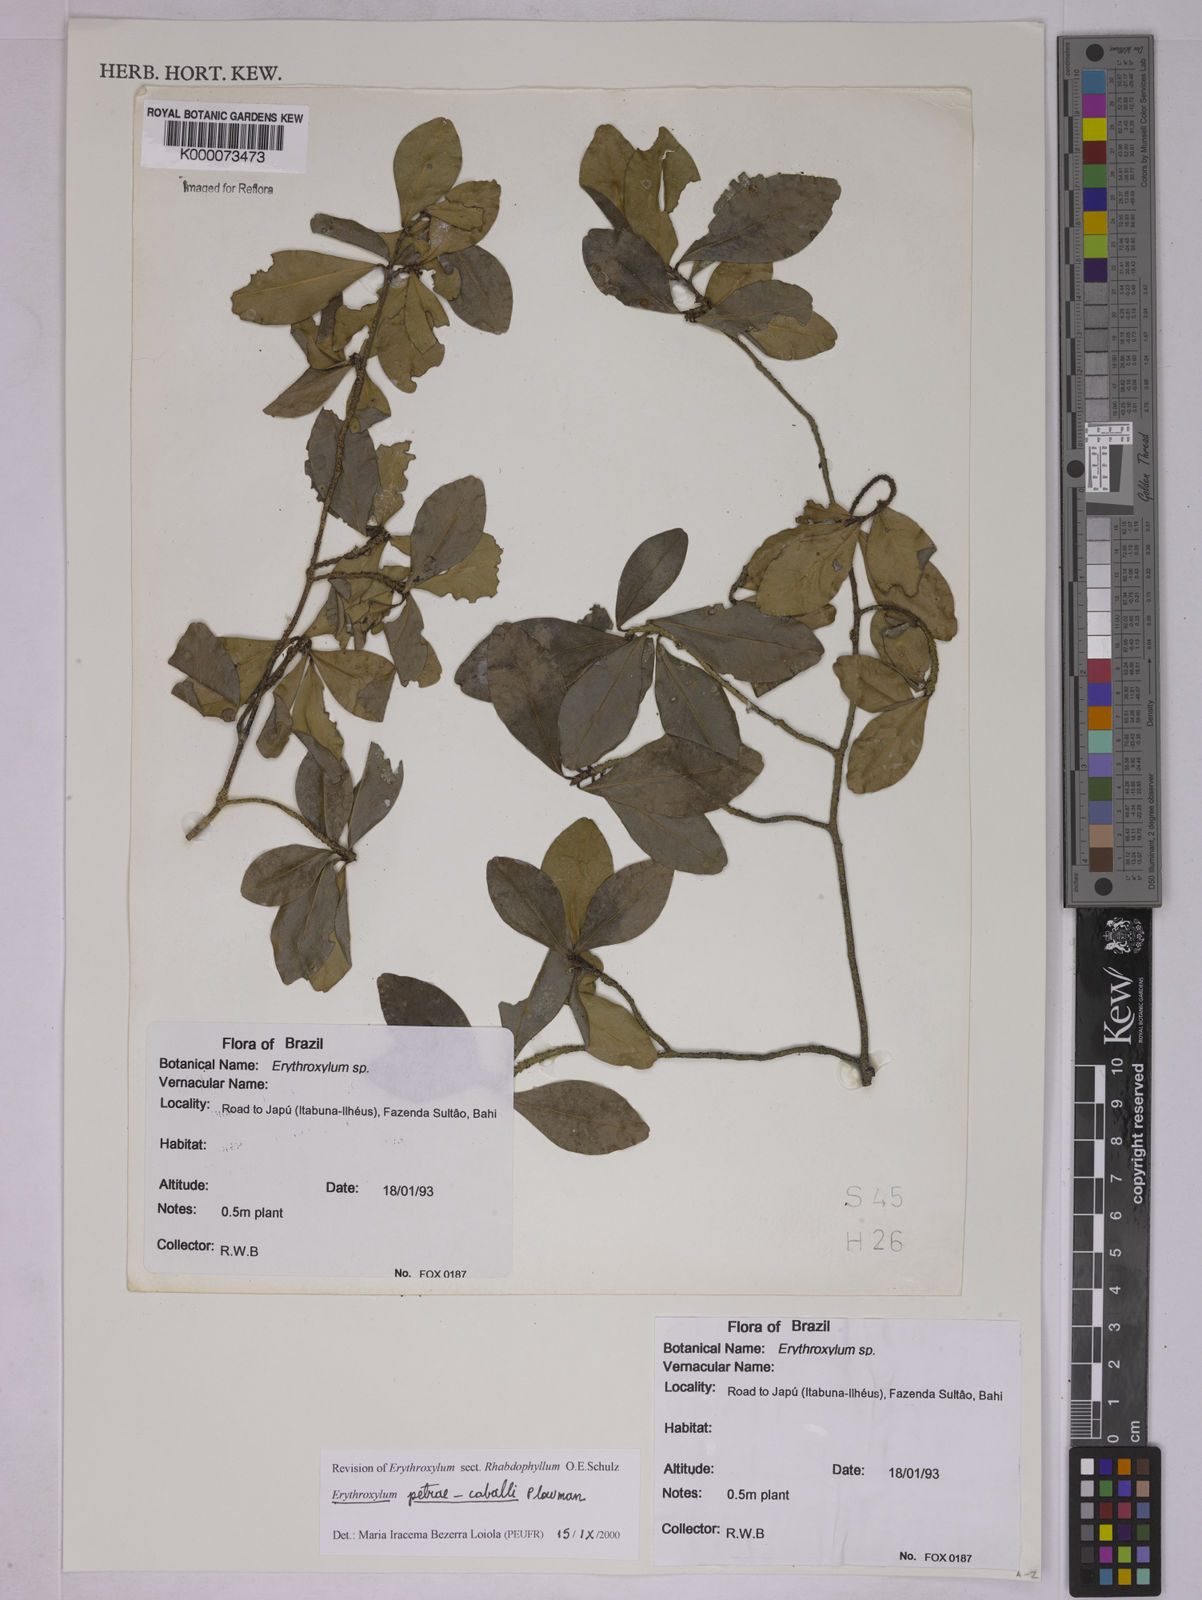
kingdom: Plantae
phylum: Tracheophyta
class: Magnoliopsida
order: Malpighiales
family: Erythroxylaceae
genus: Erythroxylum
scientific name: Erythroxylum petrae-caballi
